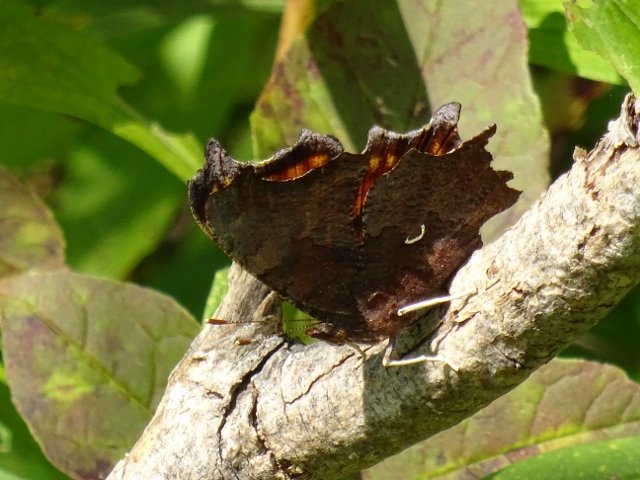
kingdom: Animalia
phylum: Arthropoda
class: Insecta
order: Lepidoptera
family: Nymphalidae
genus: Polygonia
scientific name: Polygonia comma
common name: Eastern Comma
